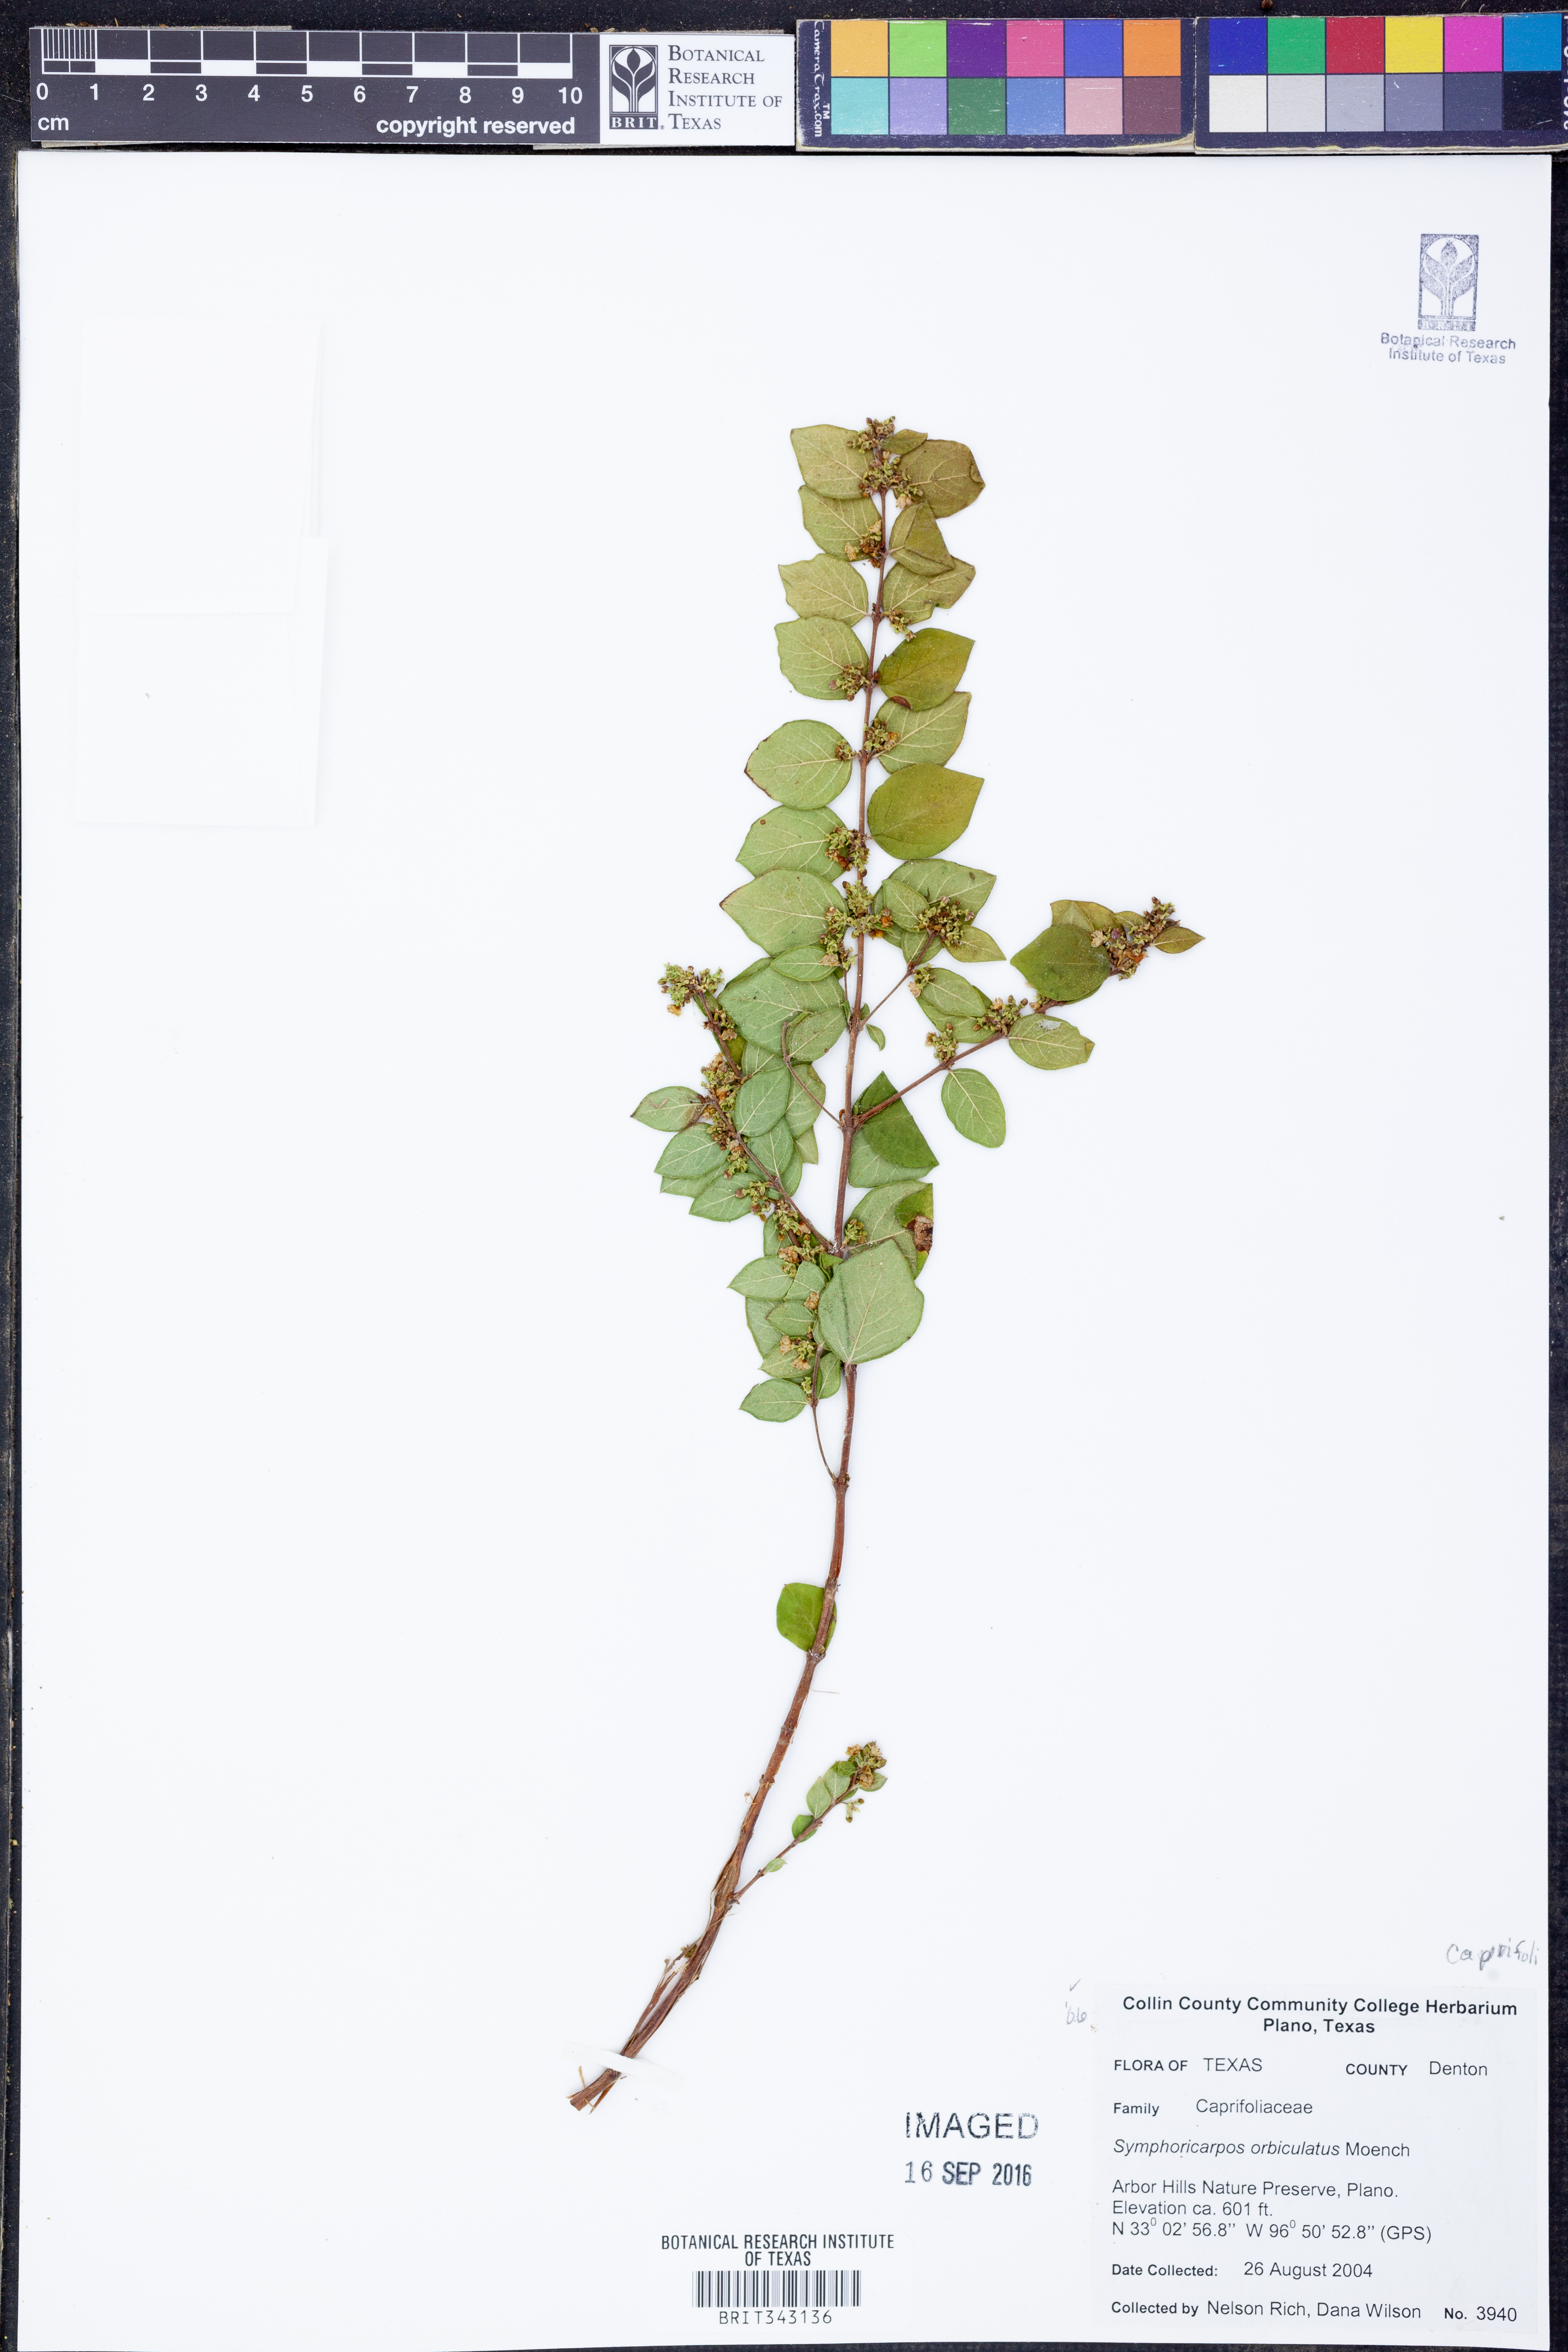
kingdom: Plantae
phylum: Tracheophyta
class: Magnoliopsida
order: Dipsacales
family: Caprifoliaceae
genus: Symphoricarpos
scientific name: Symphoricarpos orbiculatus
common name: Coralberry
